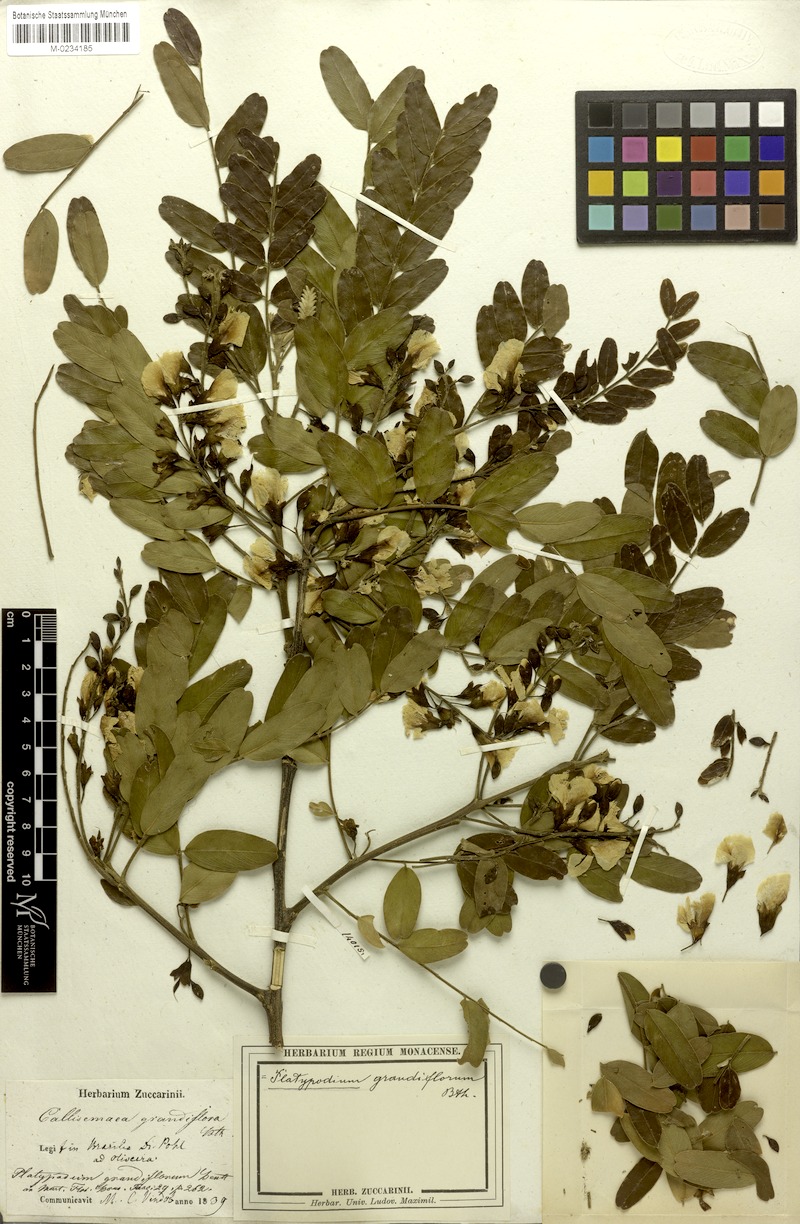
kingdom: Plantae
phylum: Tracheophyta
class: Magnoliopsida
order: Fabales
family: Fabaceae
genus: Platypodium
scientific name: Platypodium elegans
